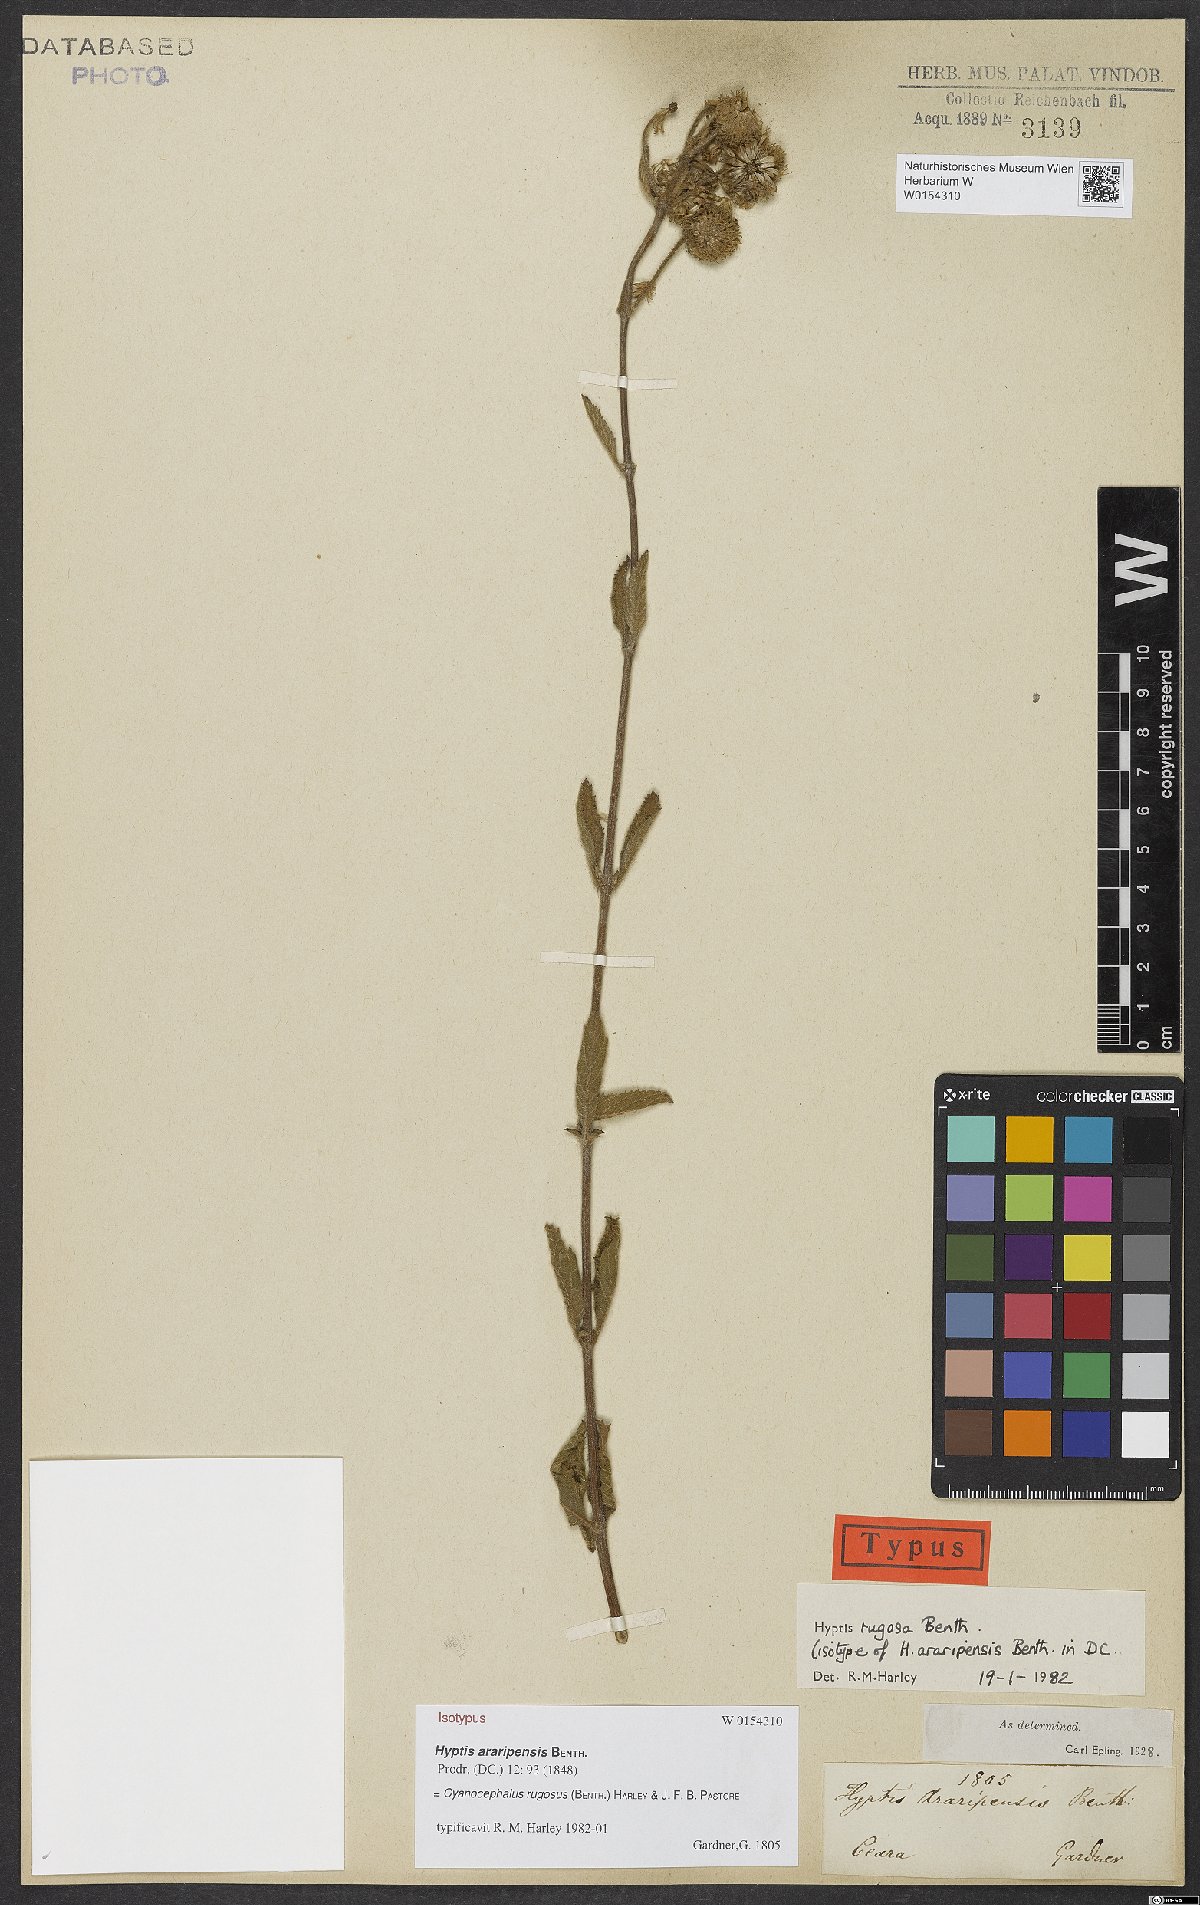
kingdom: Plantae
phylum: Tracheophyta
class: Magnoliopsida
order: Lamiales
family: Lamiaceae
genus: Cyanocephalus
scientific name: Cyanocephalus rugosus
